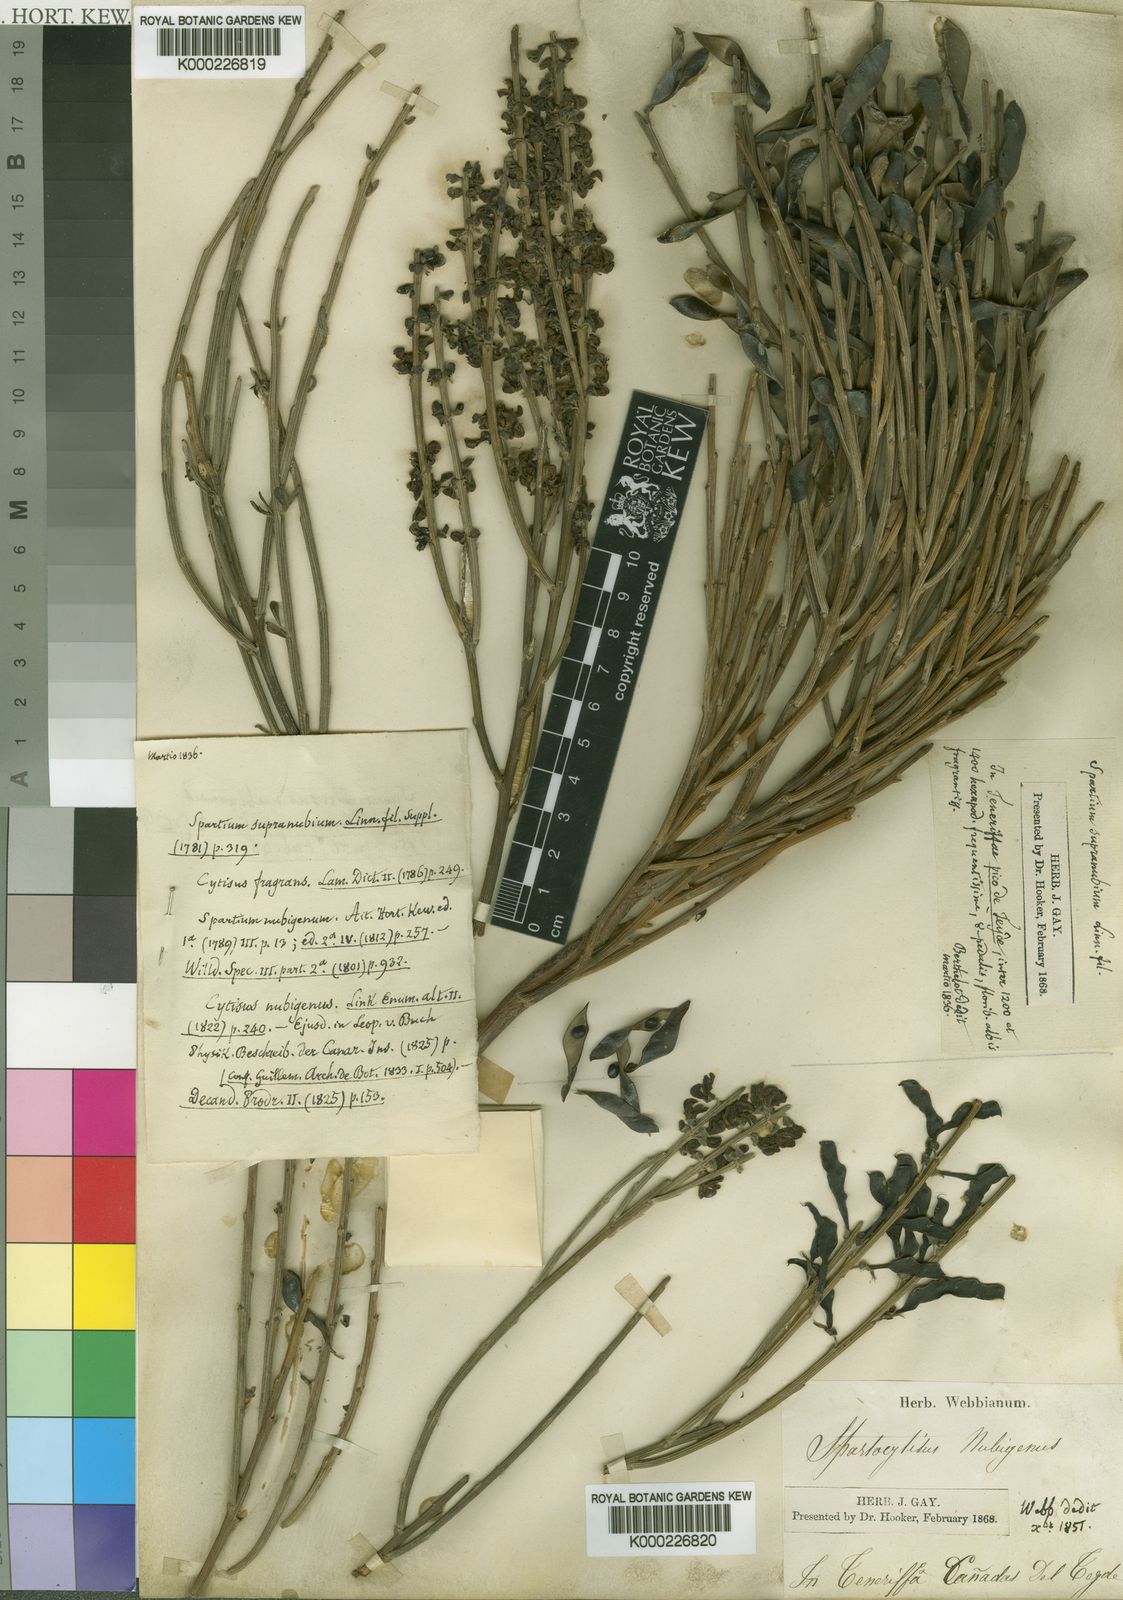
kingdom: Plantae
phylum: Tracheophyta
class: Magnoliopsida
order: Fabales
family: Fabaceae
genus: Cytisus
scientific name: Cytisus supranubius
